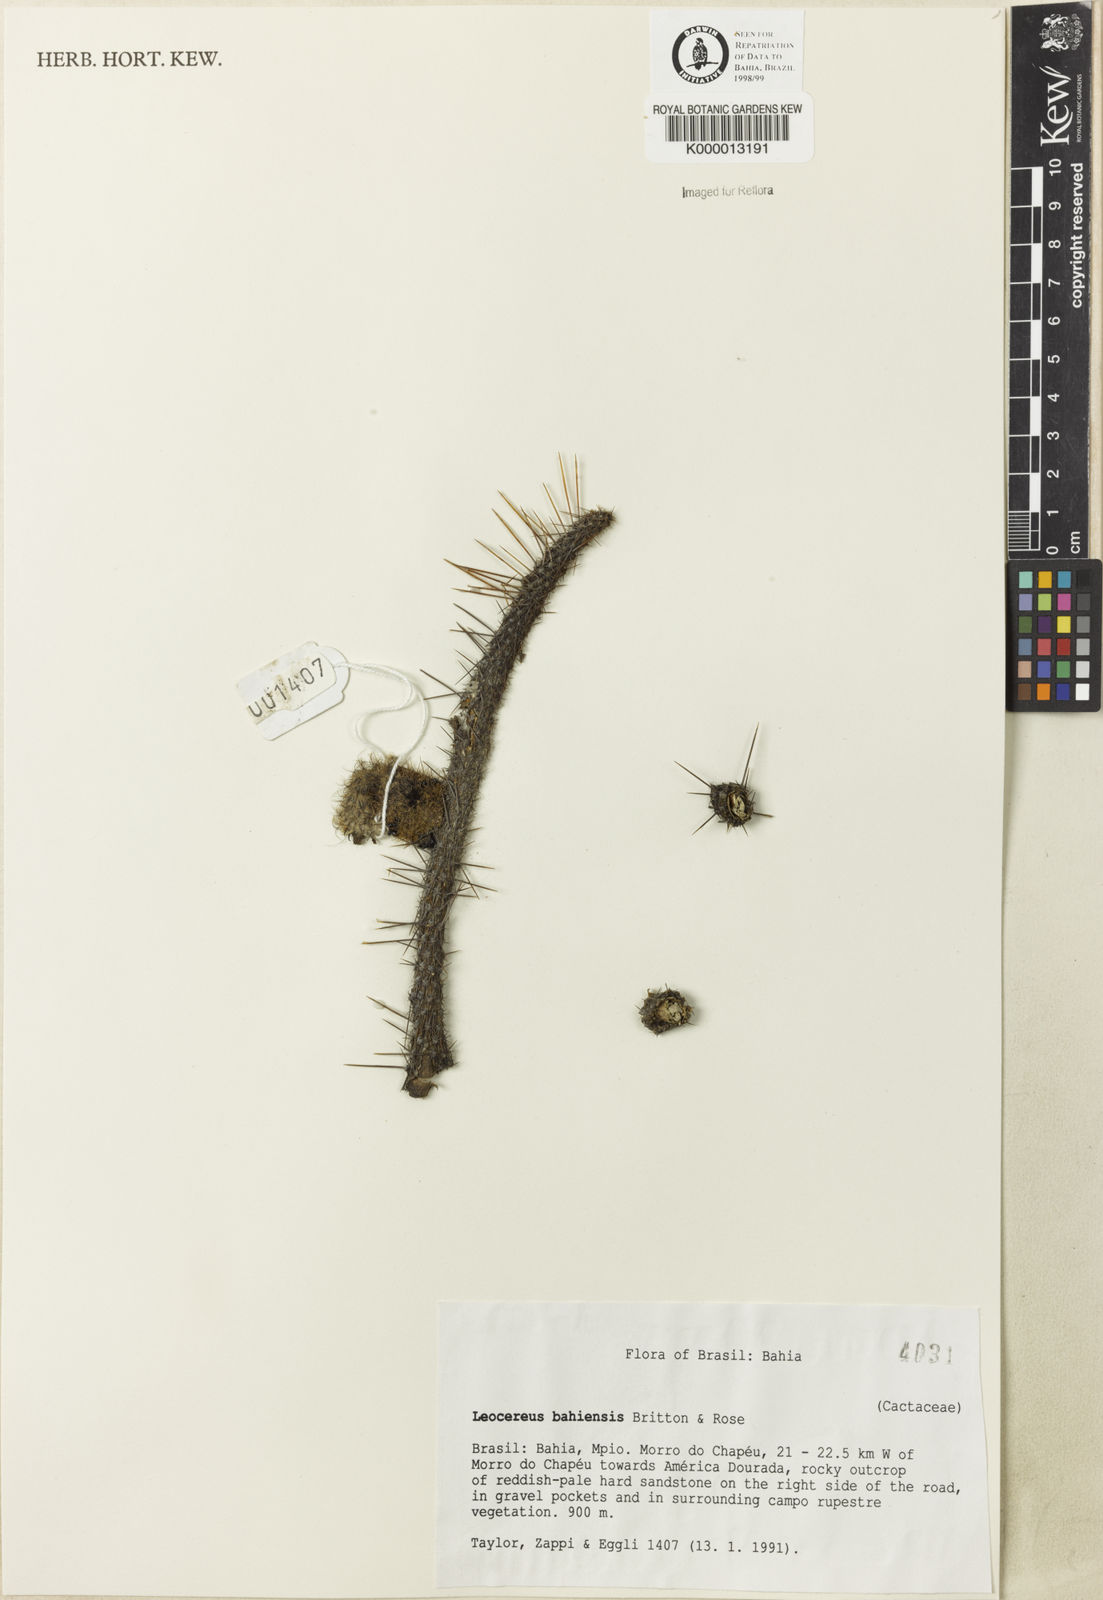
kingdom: Plantae
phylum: Tracheophyta
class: Magnoliopsida
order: Caryophyllales
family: Cactaceae
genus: Leocereus
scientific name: Leocereus bahiensis
